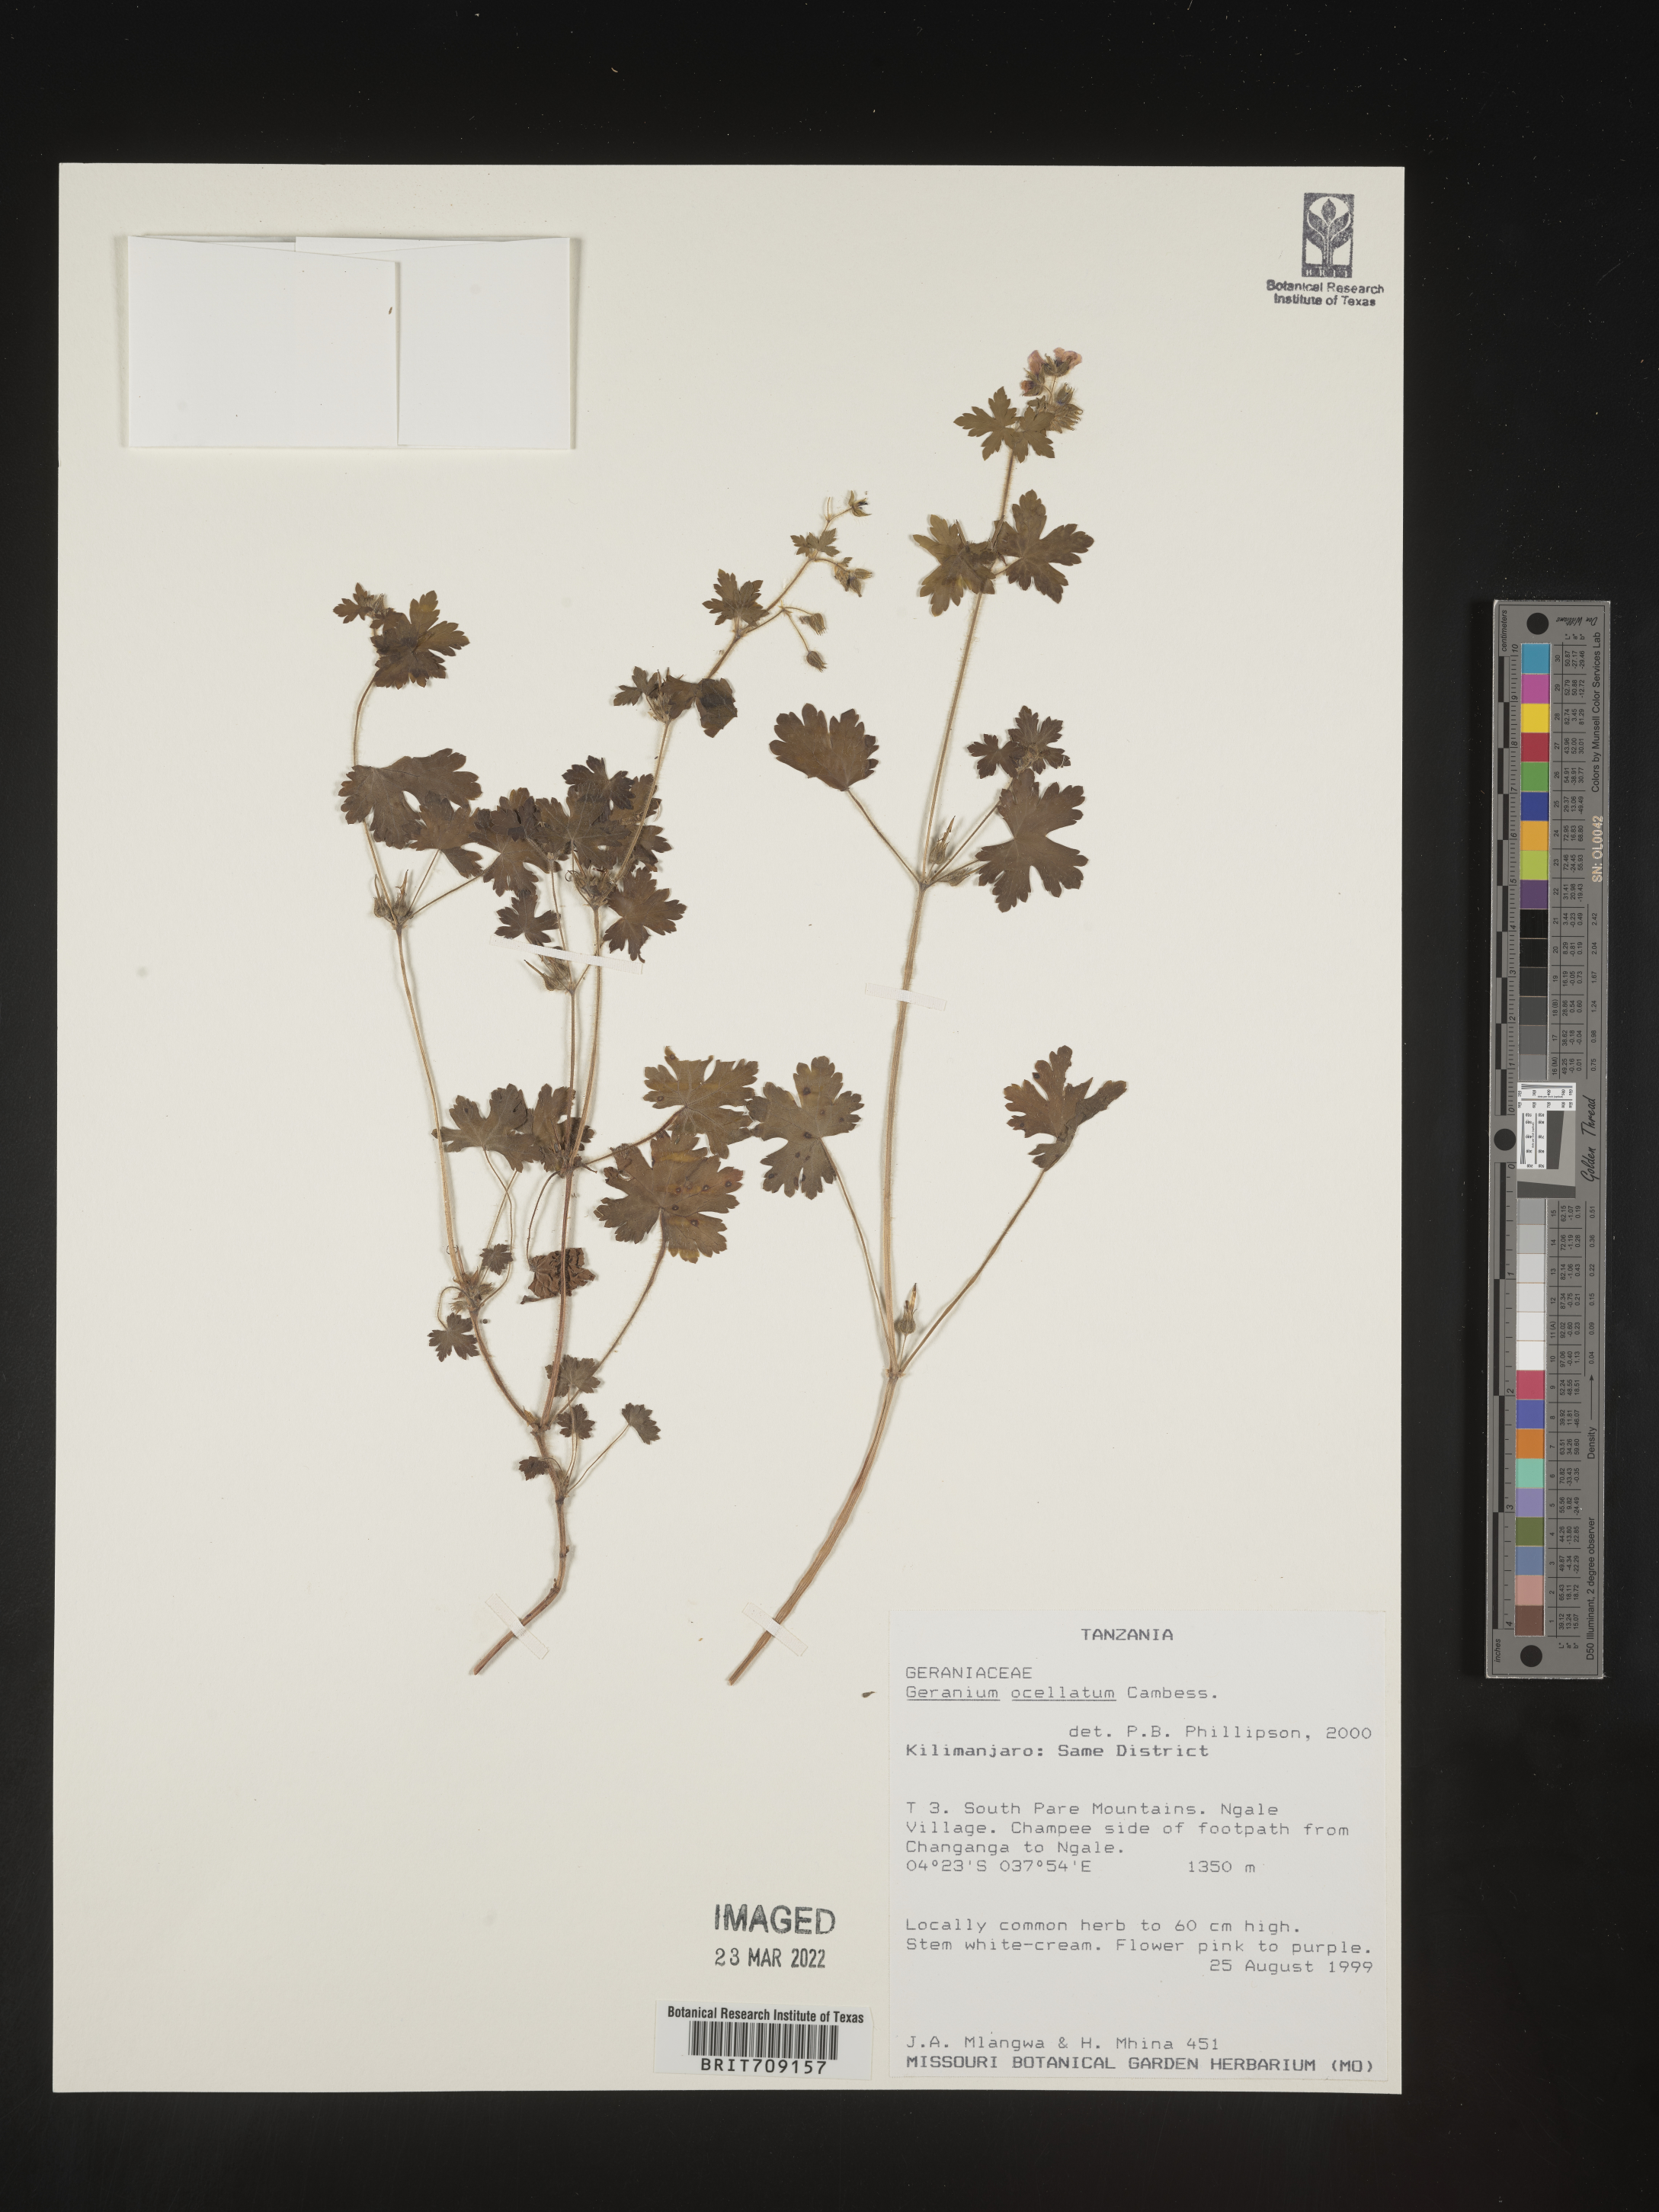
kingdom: Plantae
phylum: Tracheophyta
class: Magnoliopsida
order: Geraniales
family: Geraniaceae
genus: Geranium
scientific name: Geranium
